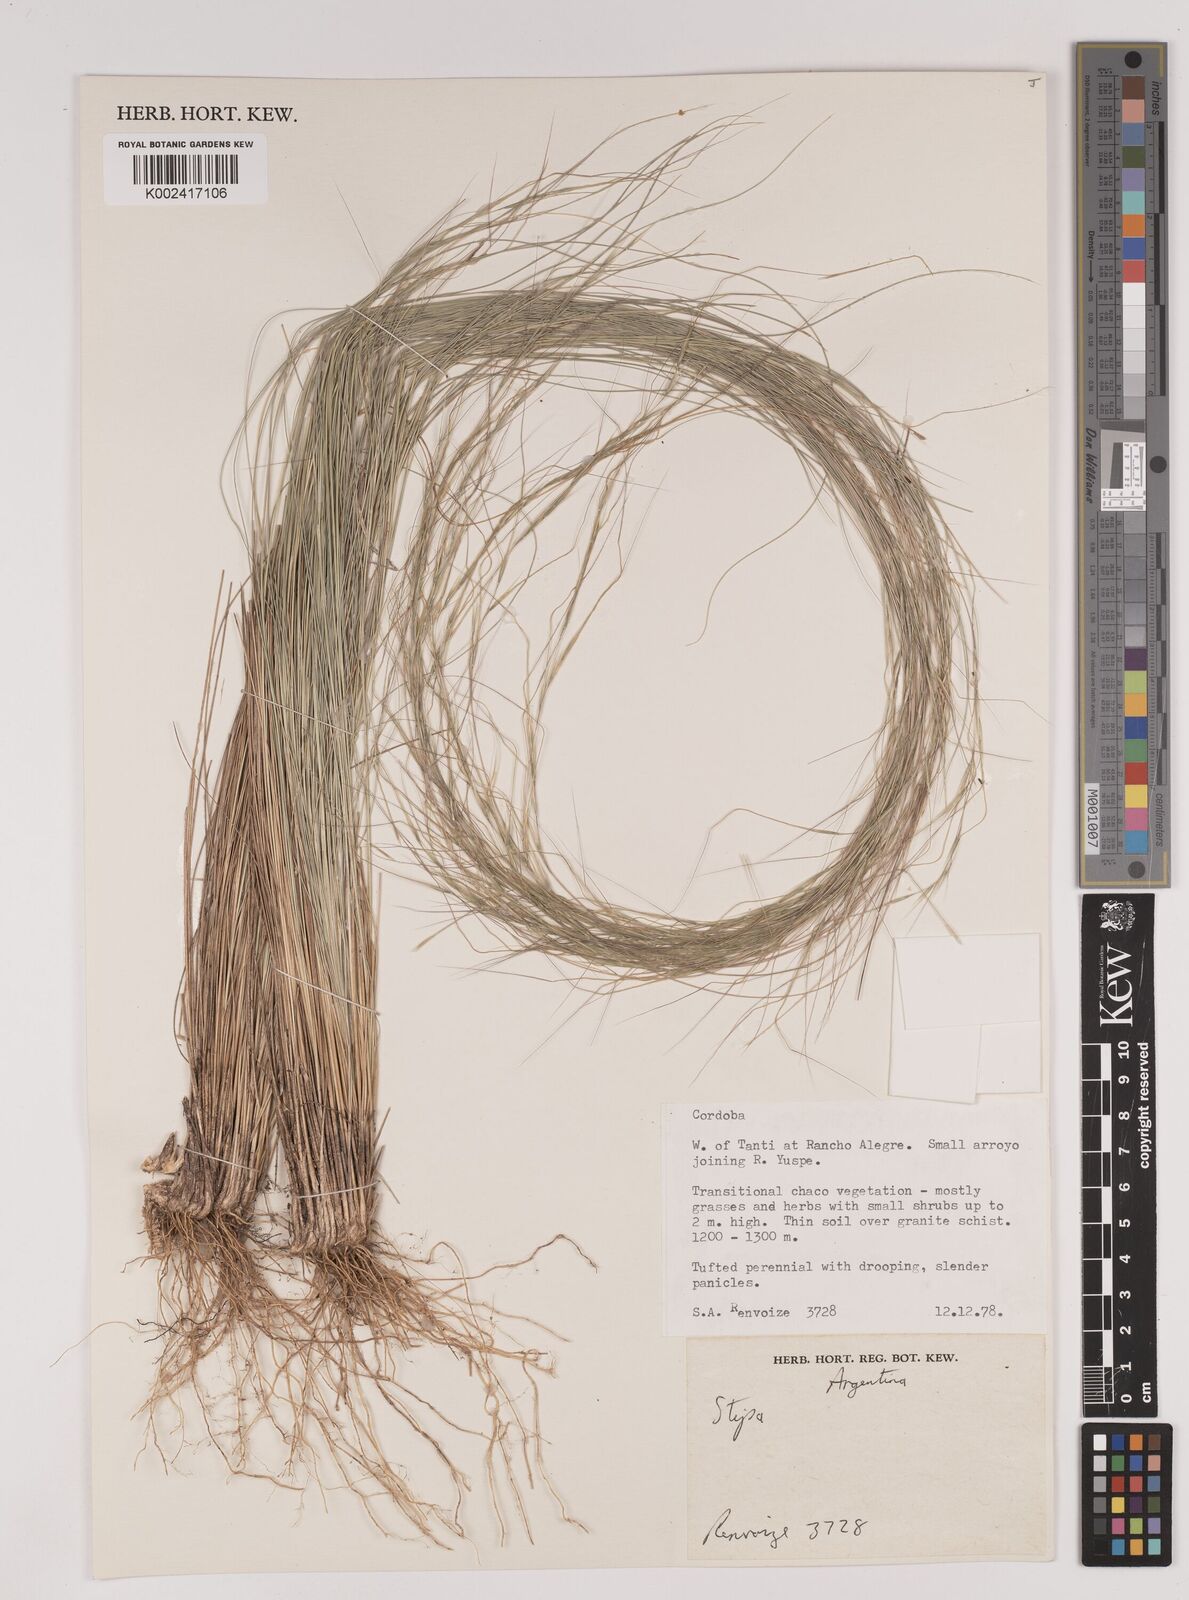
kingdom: Plantae
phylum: Tracheophyta
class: Liliopsida
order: Poales
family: Poaceae
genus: Stipa
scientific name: Stipa
